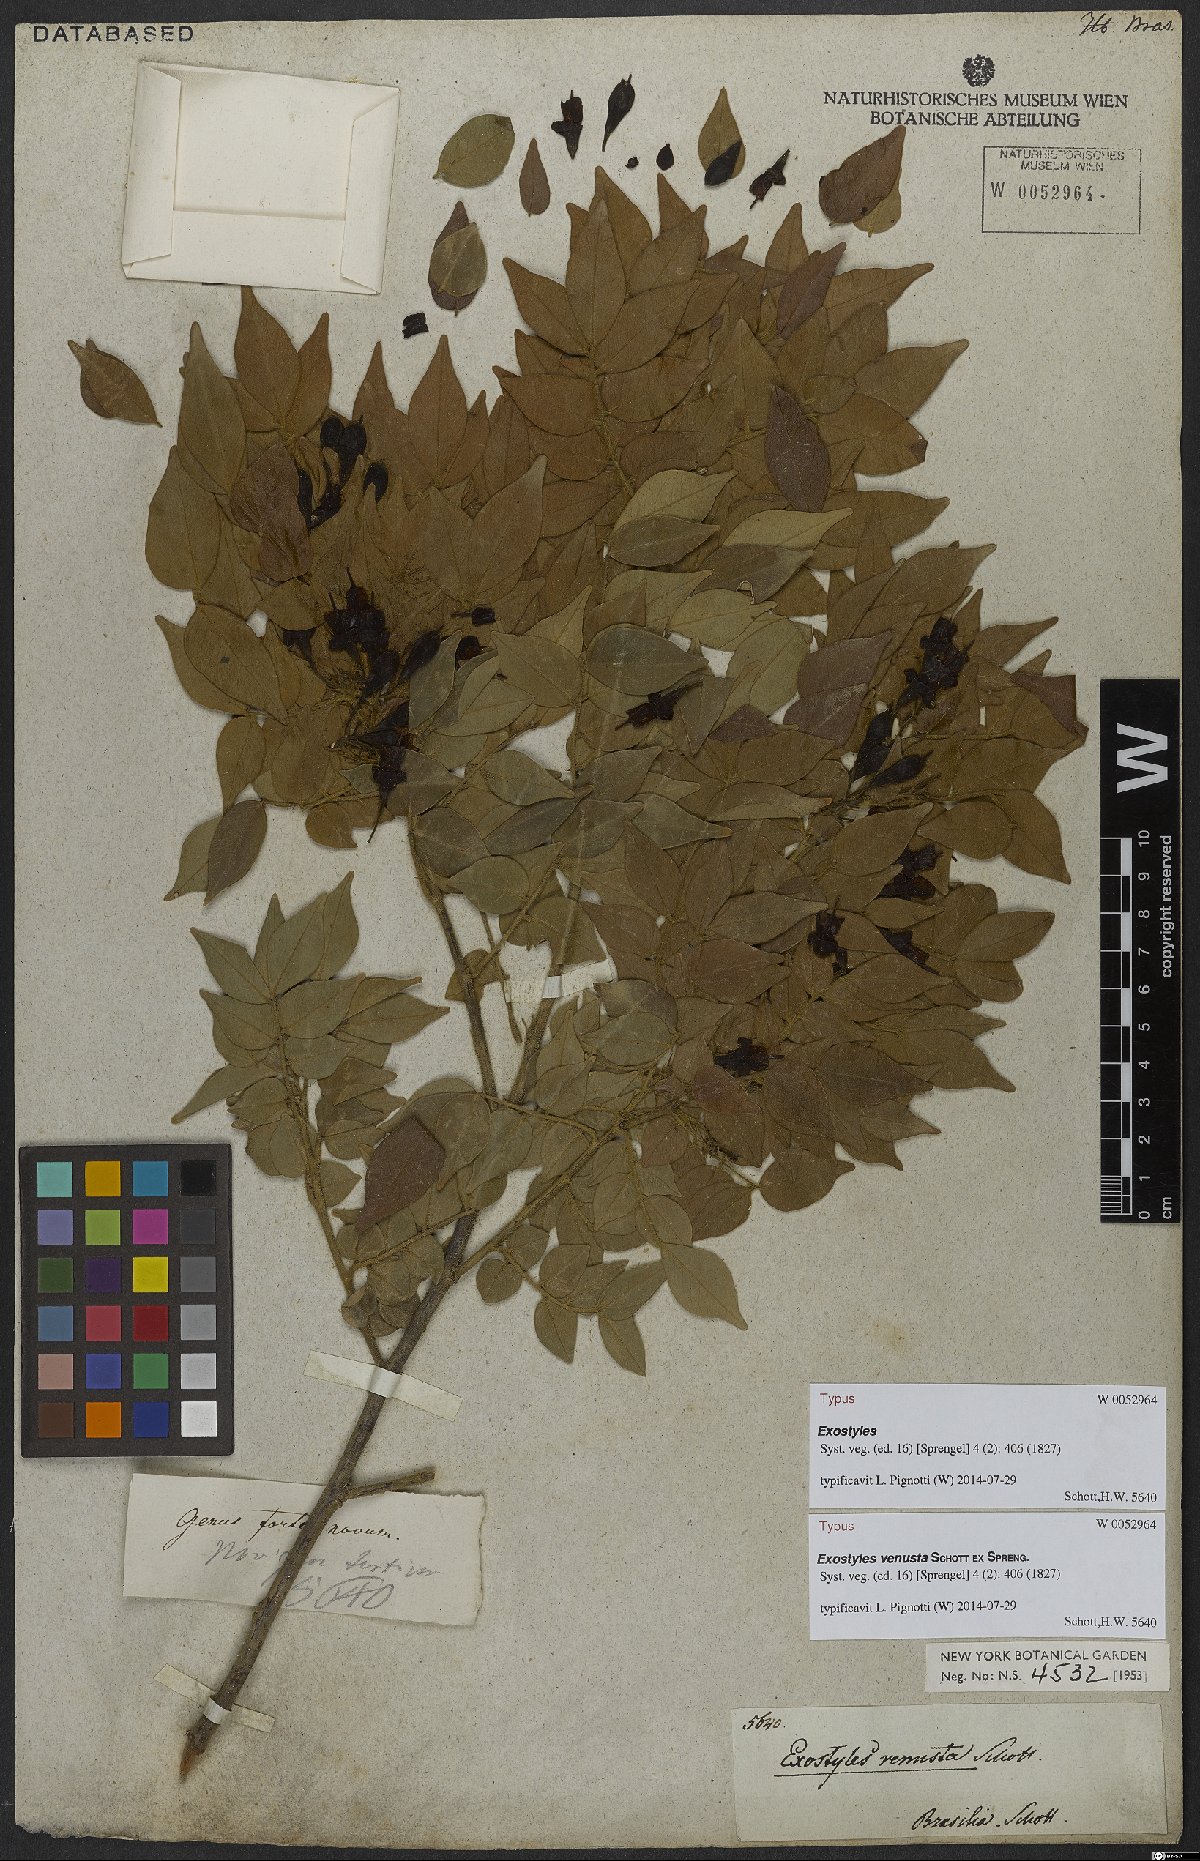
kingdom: Plantae
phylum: Tracheophyta
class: Magnoliopsida
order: Fabales
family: Fabaceae
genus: Exostyles
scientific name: Exostyles venusta
